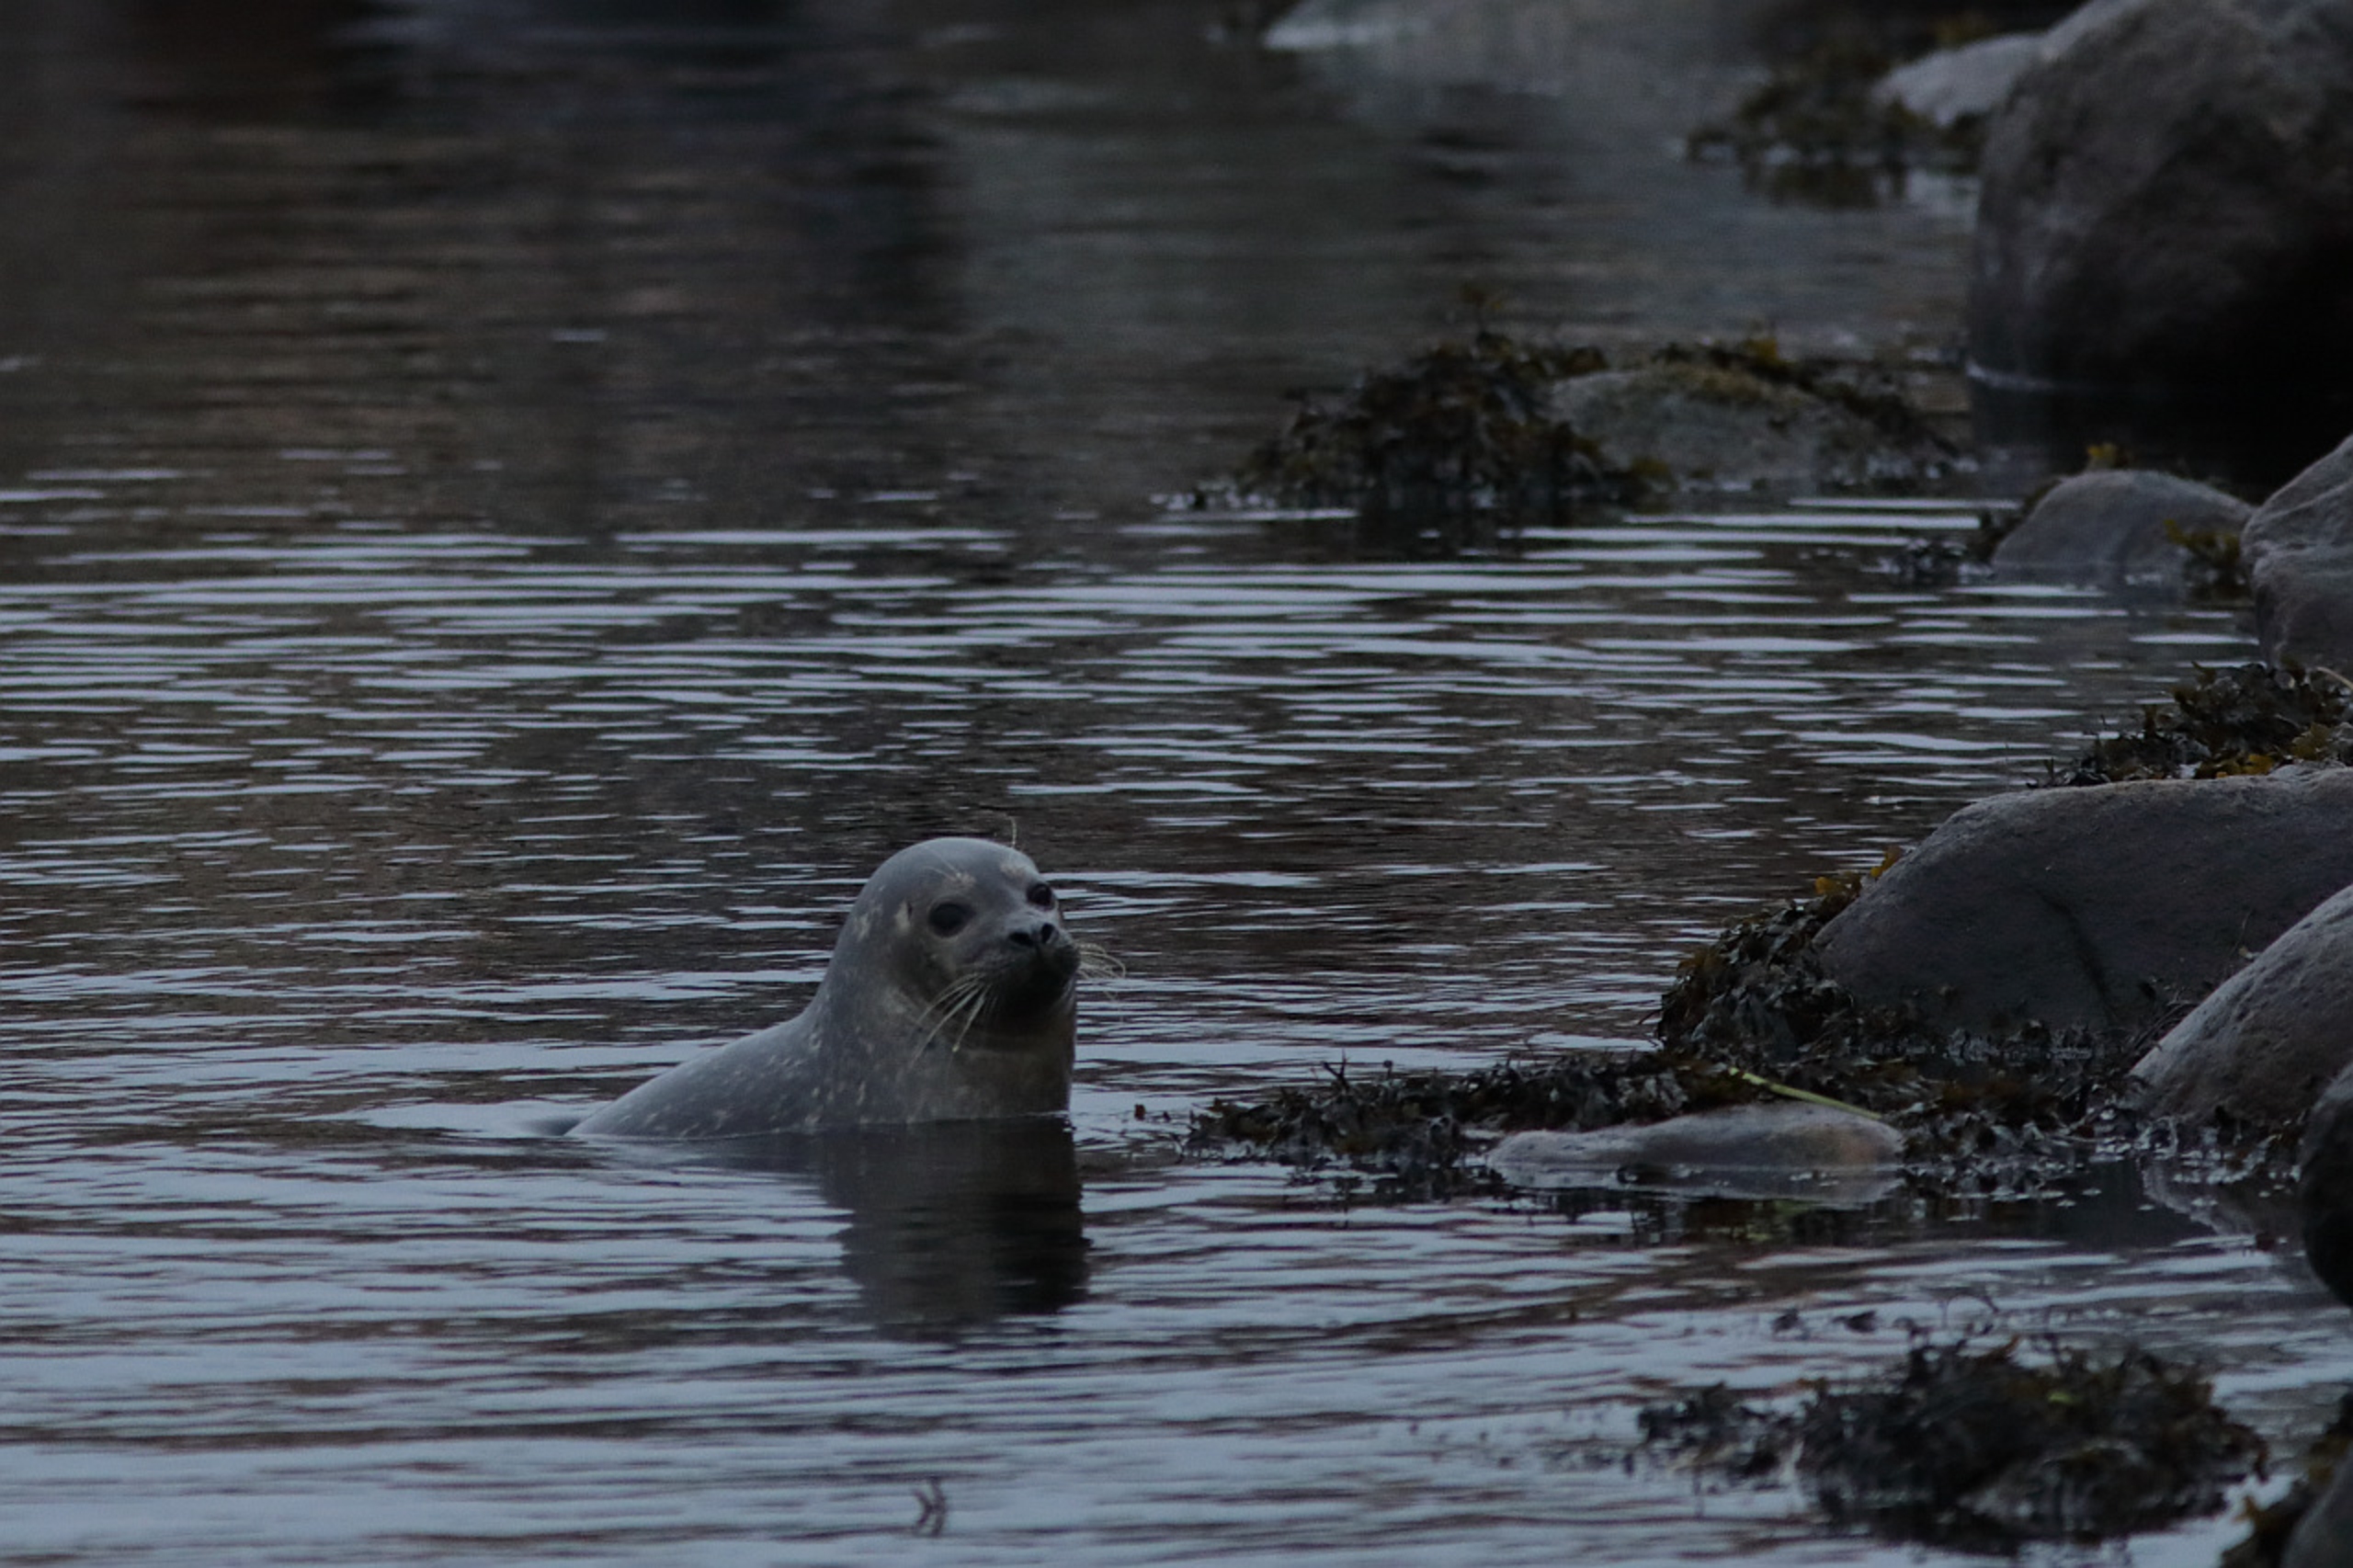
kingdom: Animalia
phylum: Chordata
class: Mammalia
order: Carnivora
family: Phocidae
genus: Phoca
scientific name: Phoca vitulina
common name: Spættet sæl
